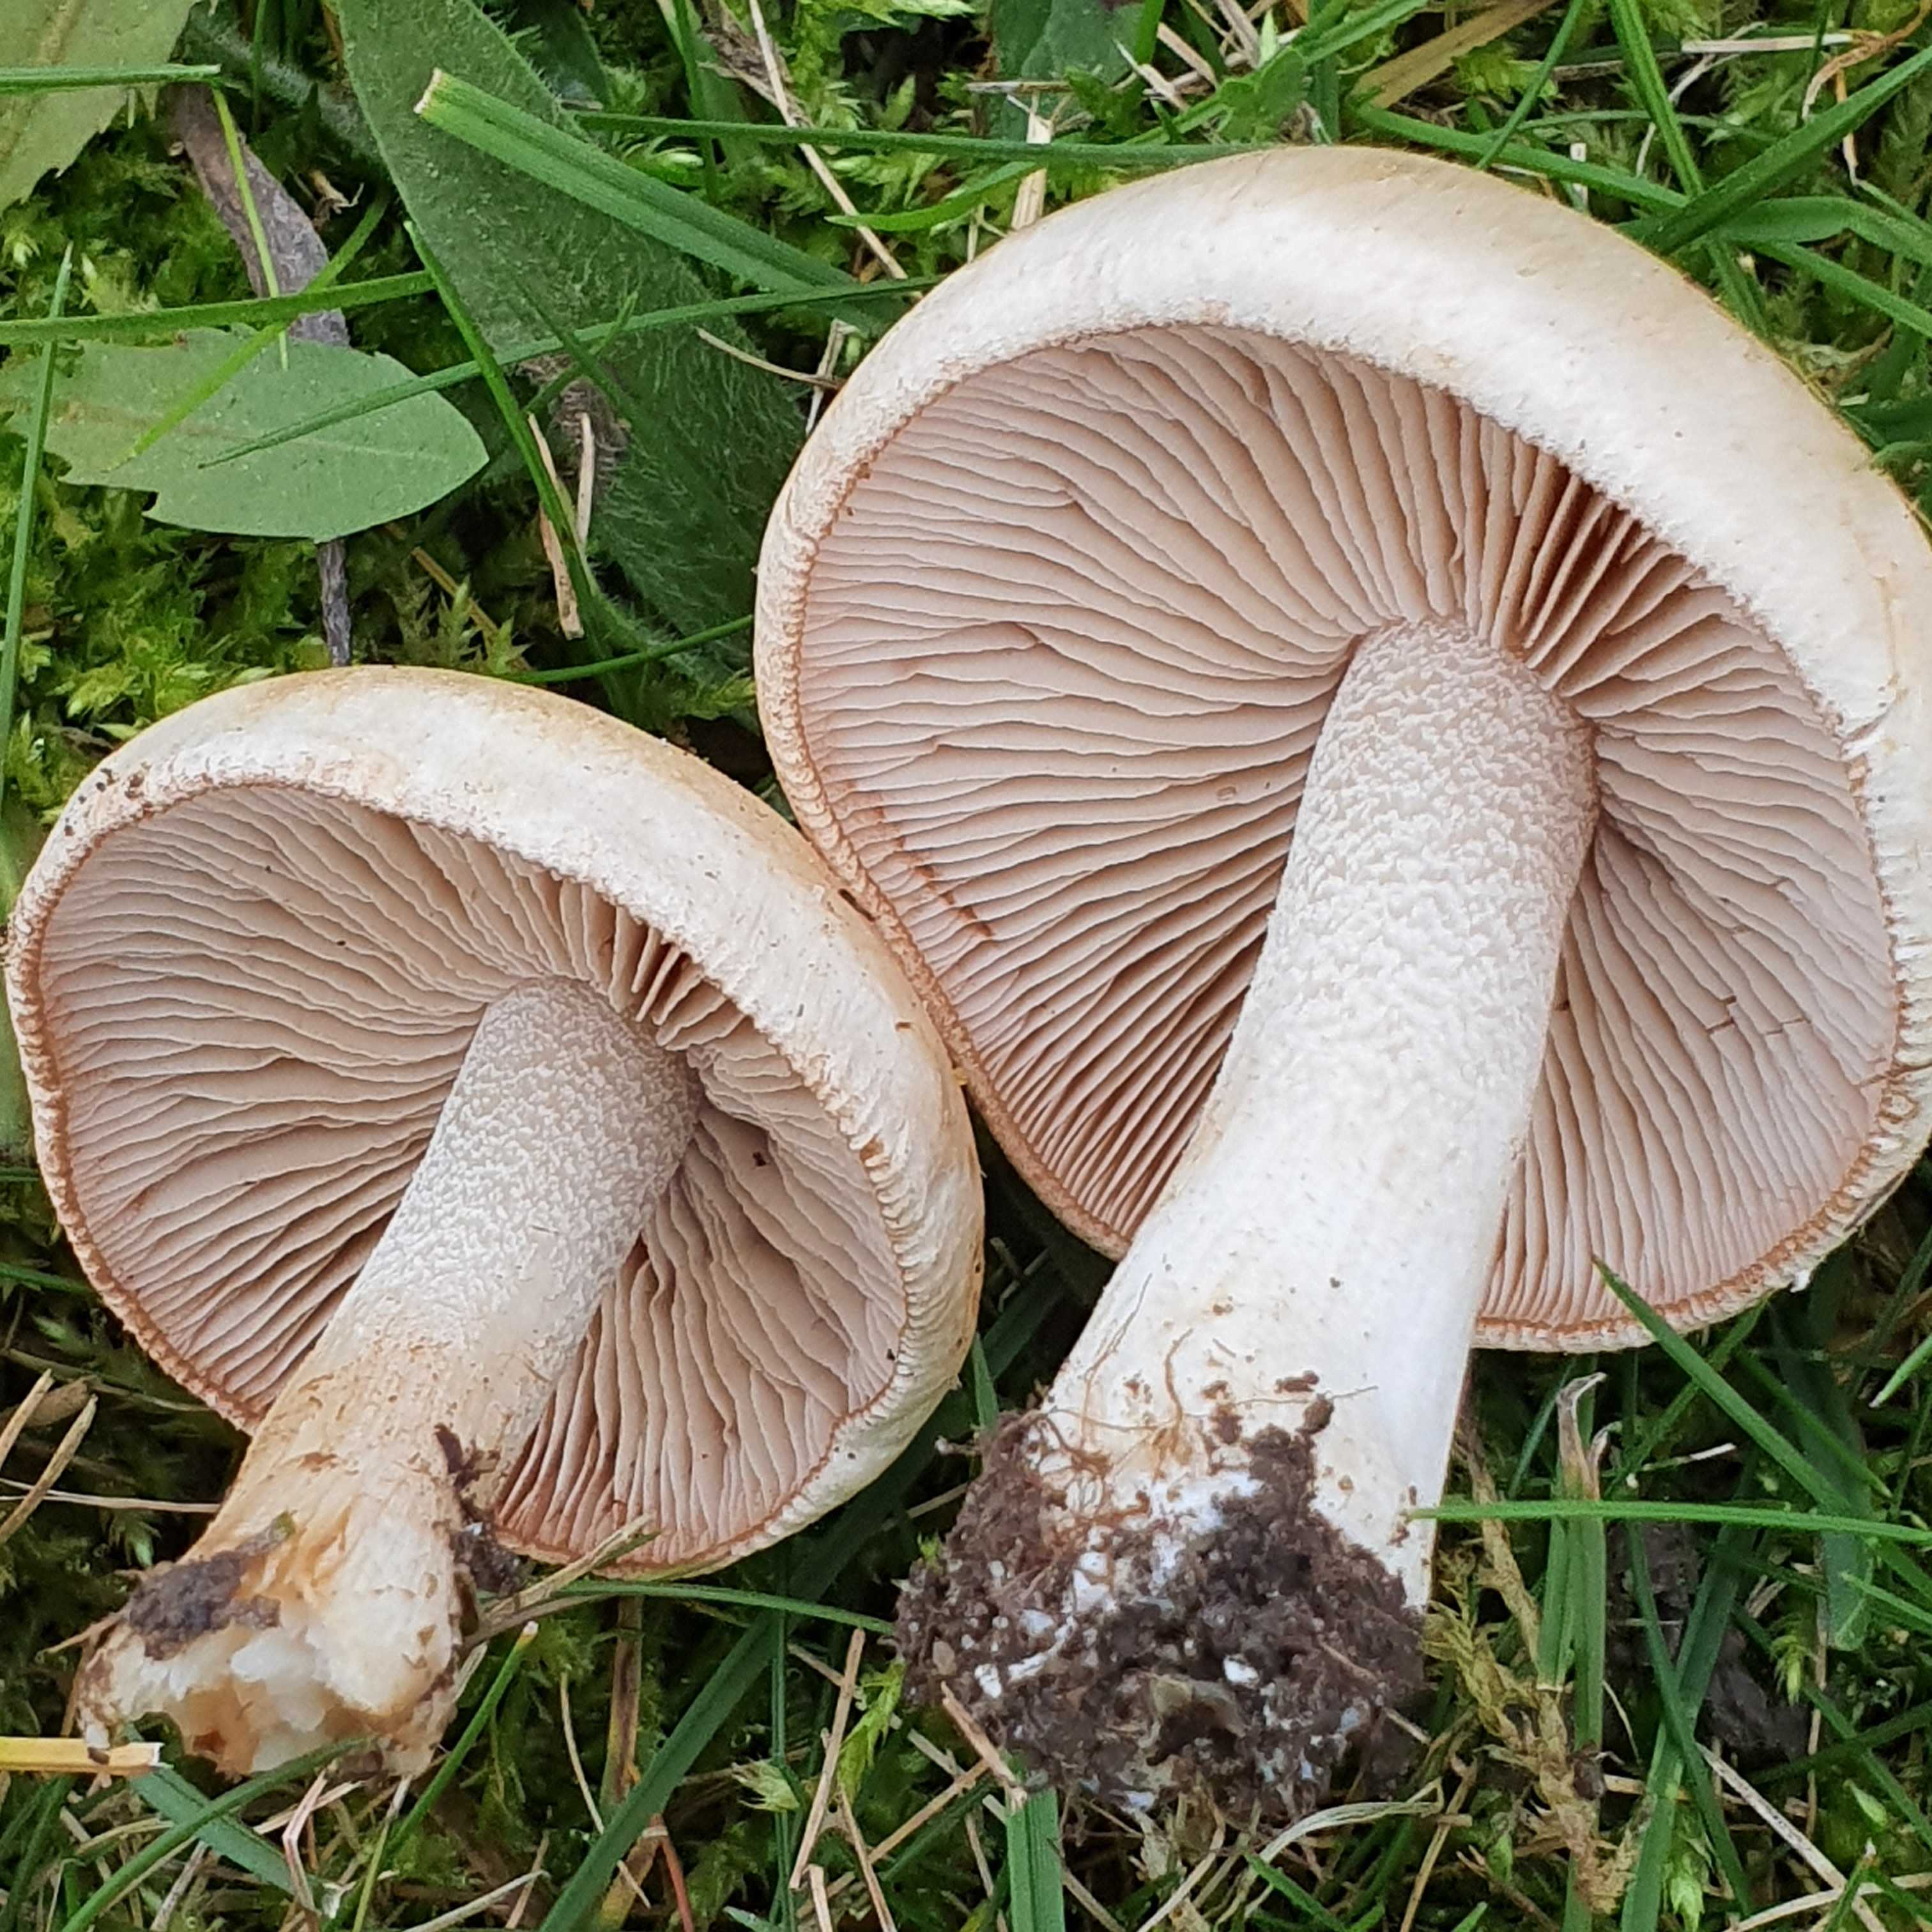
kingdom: Fungi
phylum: Basidiomycota
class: Agaricomycetes
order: Agaricales
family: Hymenogastraceae
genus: Hebeloma
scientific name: Hebeloma crustuliniforme
